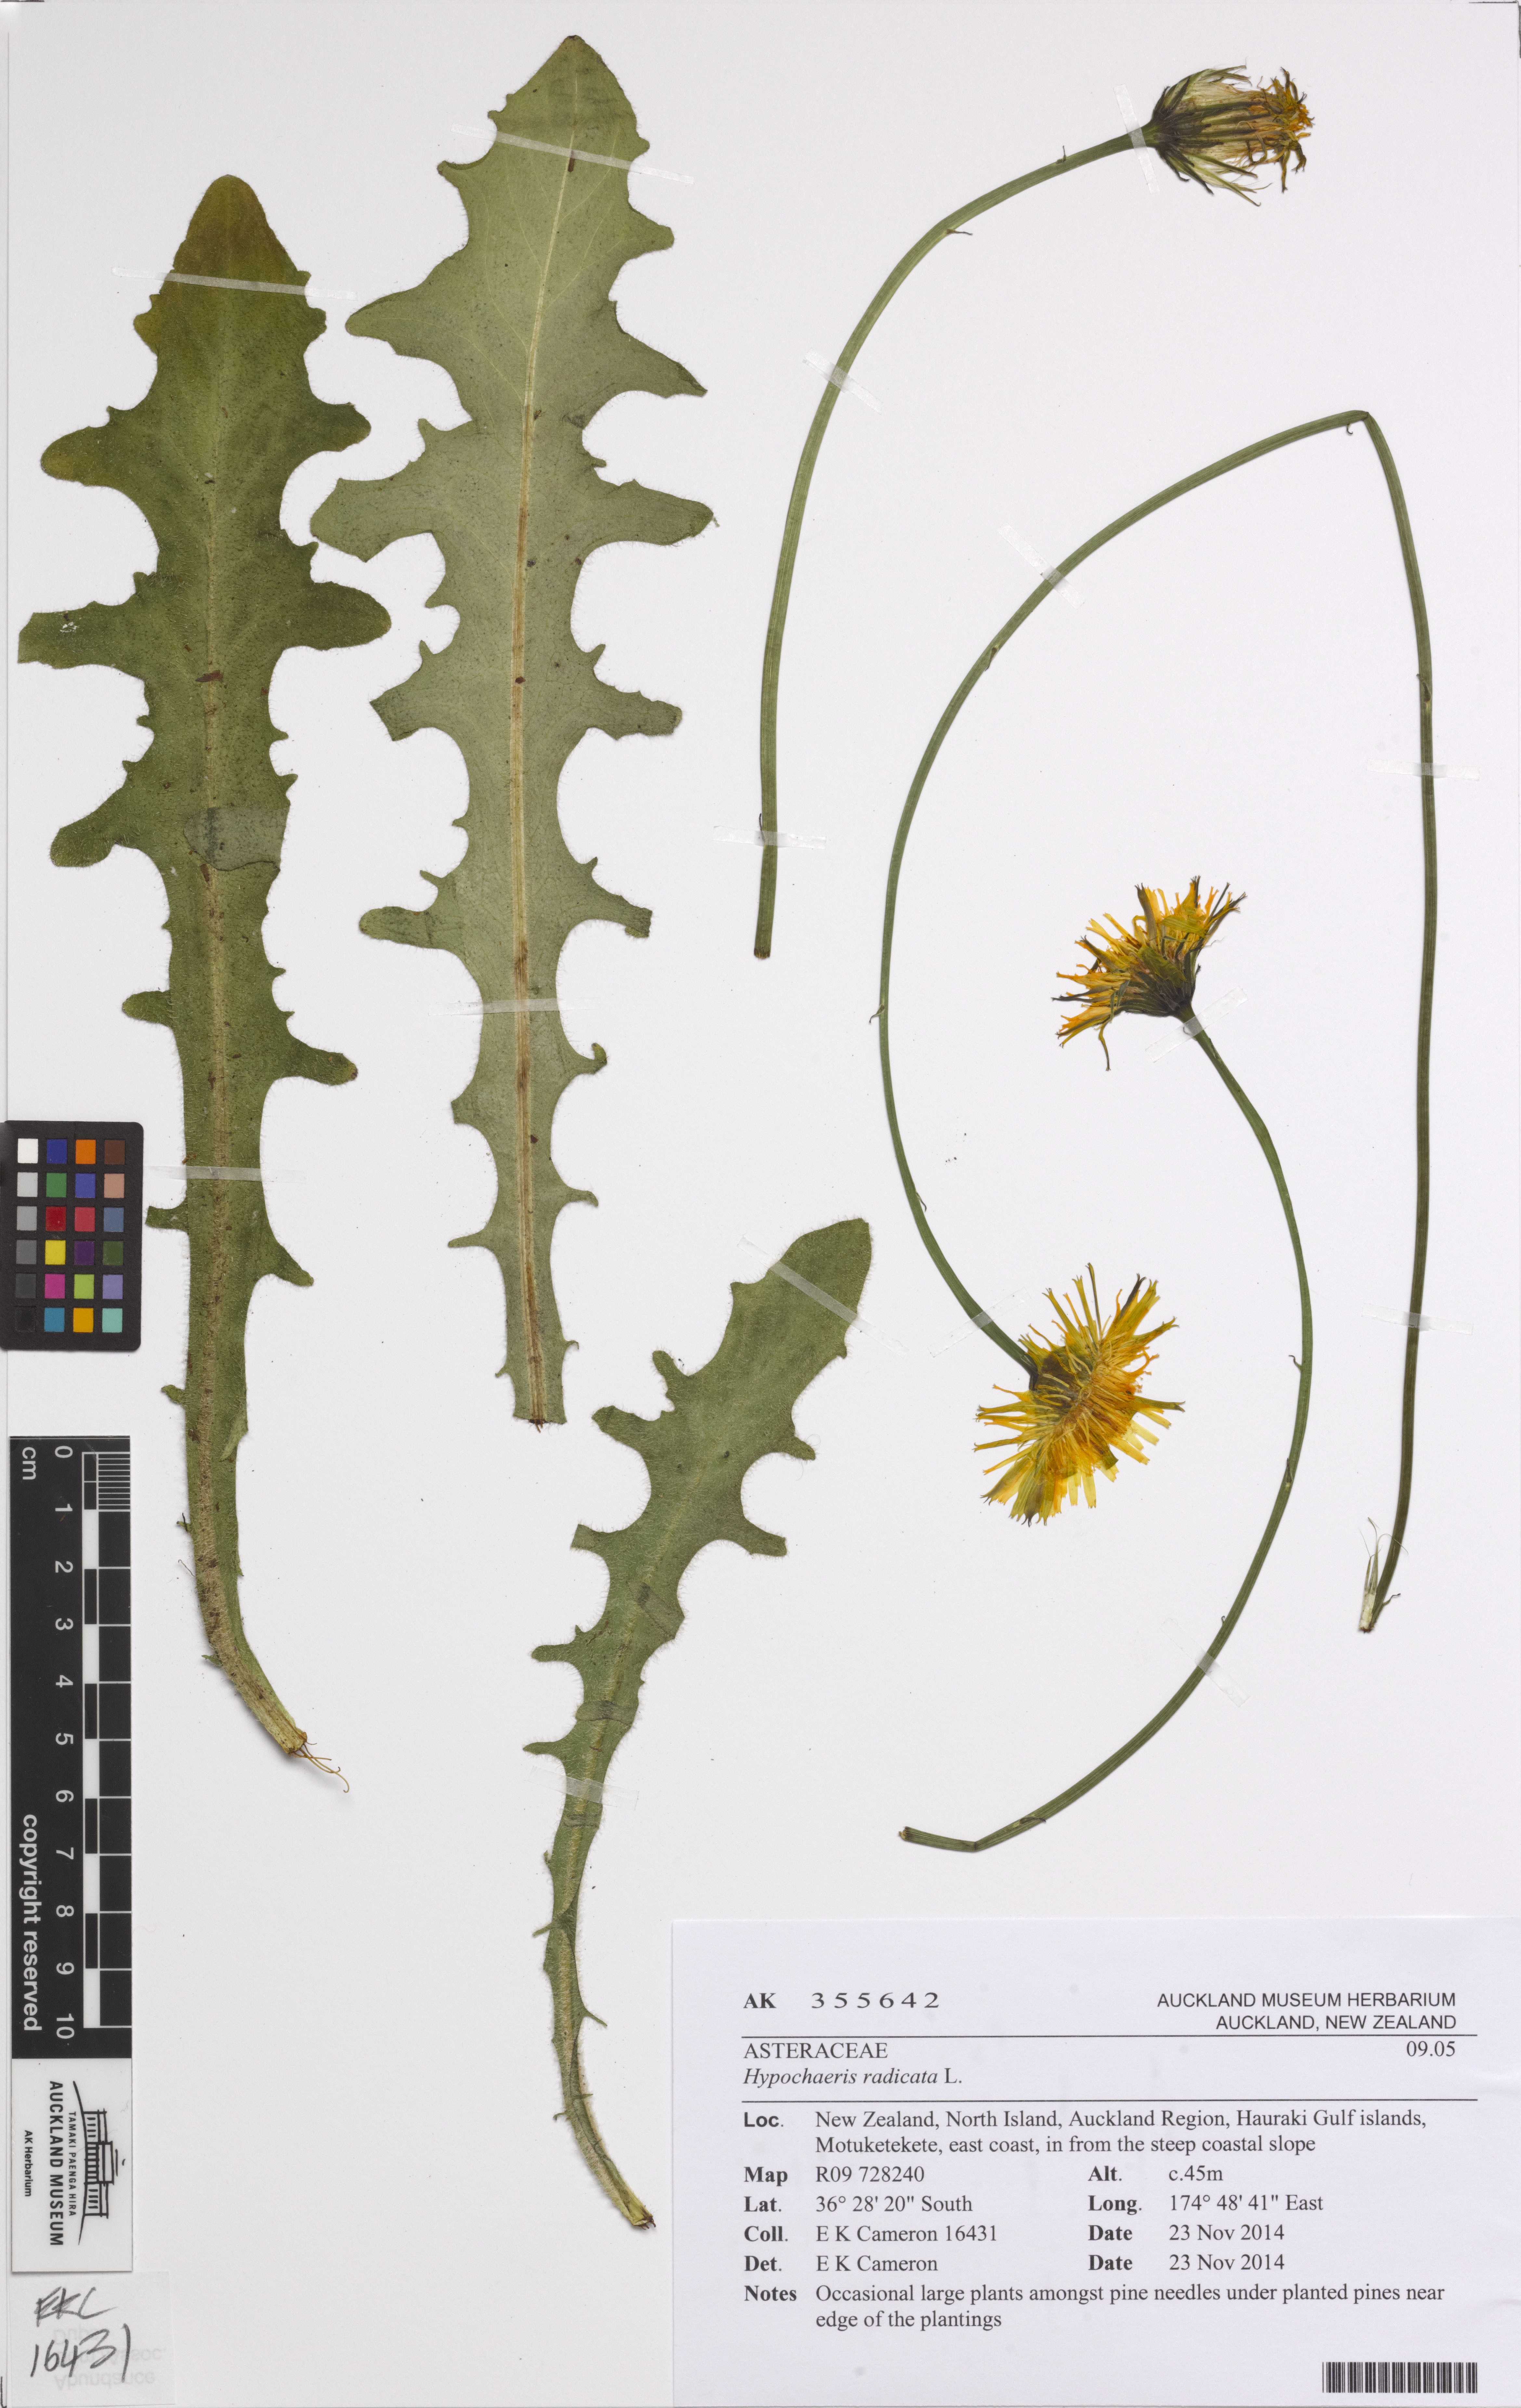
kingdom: Plantae
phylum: Tracheophyta
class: Magnoliopsida
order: Asterales
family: Asteraceae
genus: Hypochaeris
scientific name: Hypochaeris radicata
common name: Flatweed
